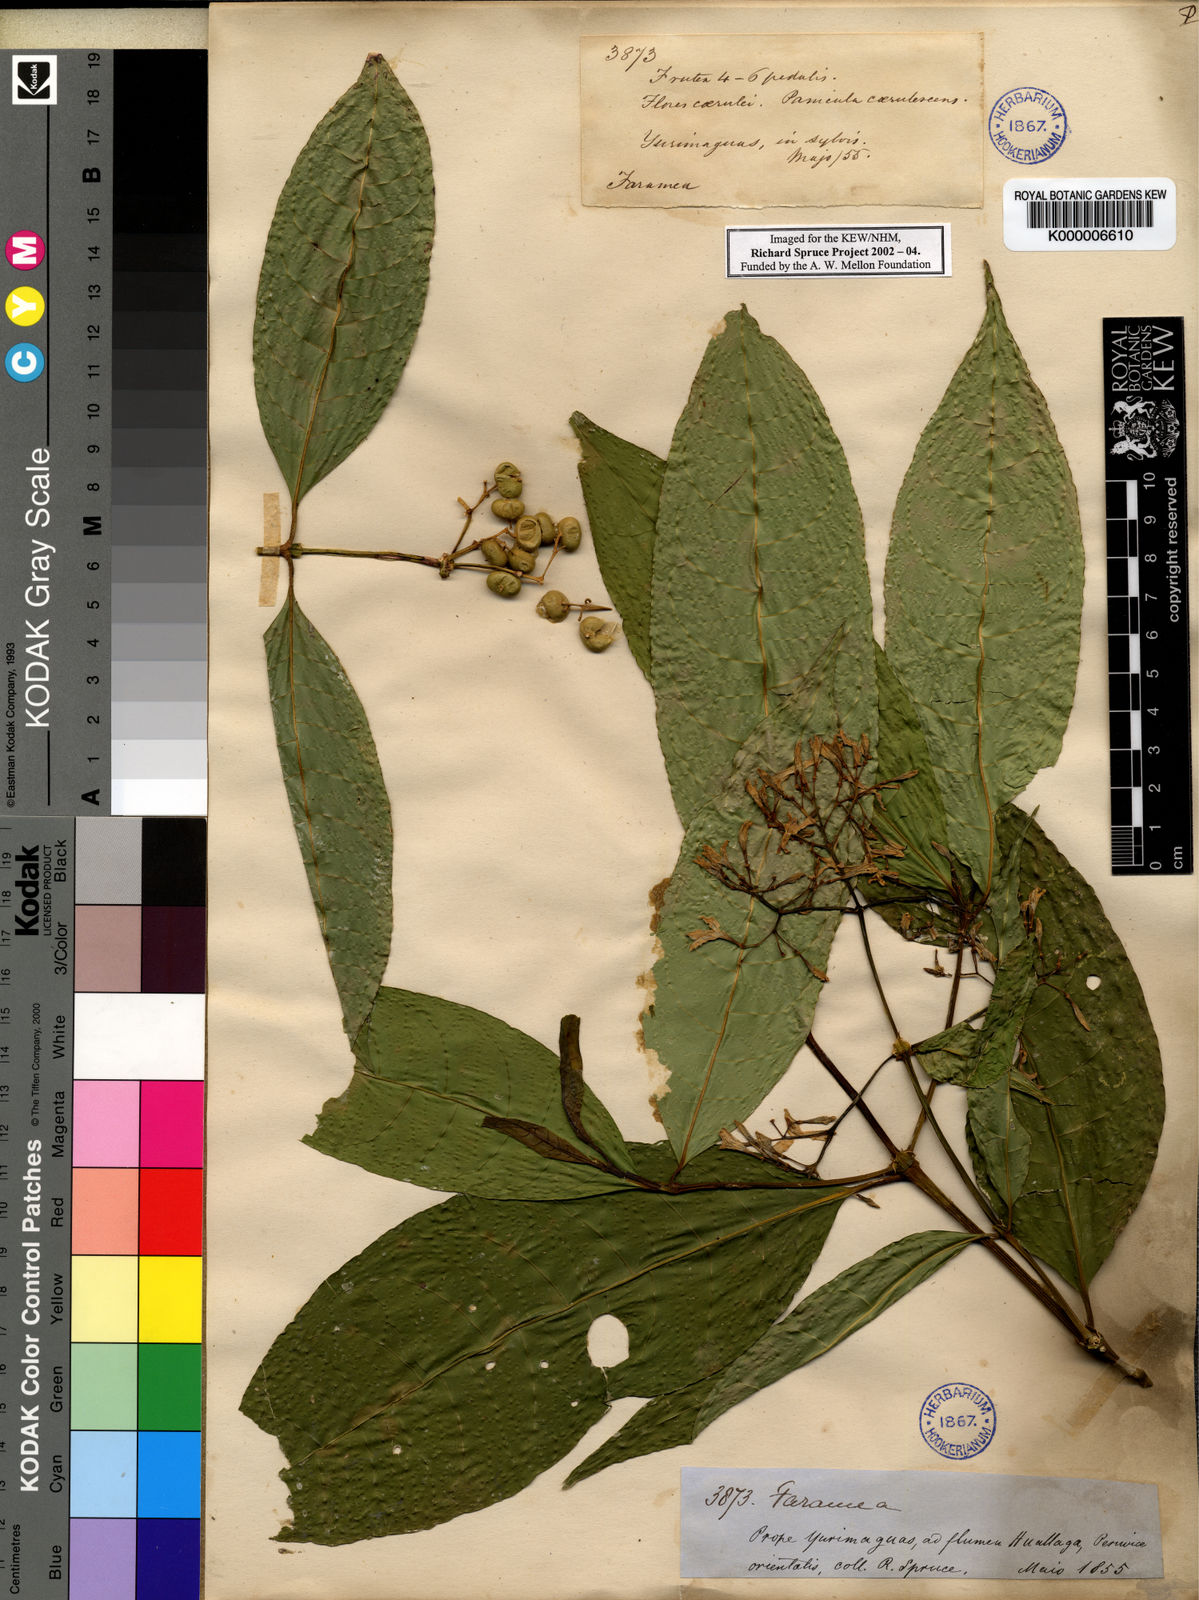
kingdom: Plantae
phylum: Tracheophyta
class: Magnoliopsida
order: Gentianales
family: Rubiaceae
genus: Faramea
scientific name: Faramea multiflora
